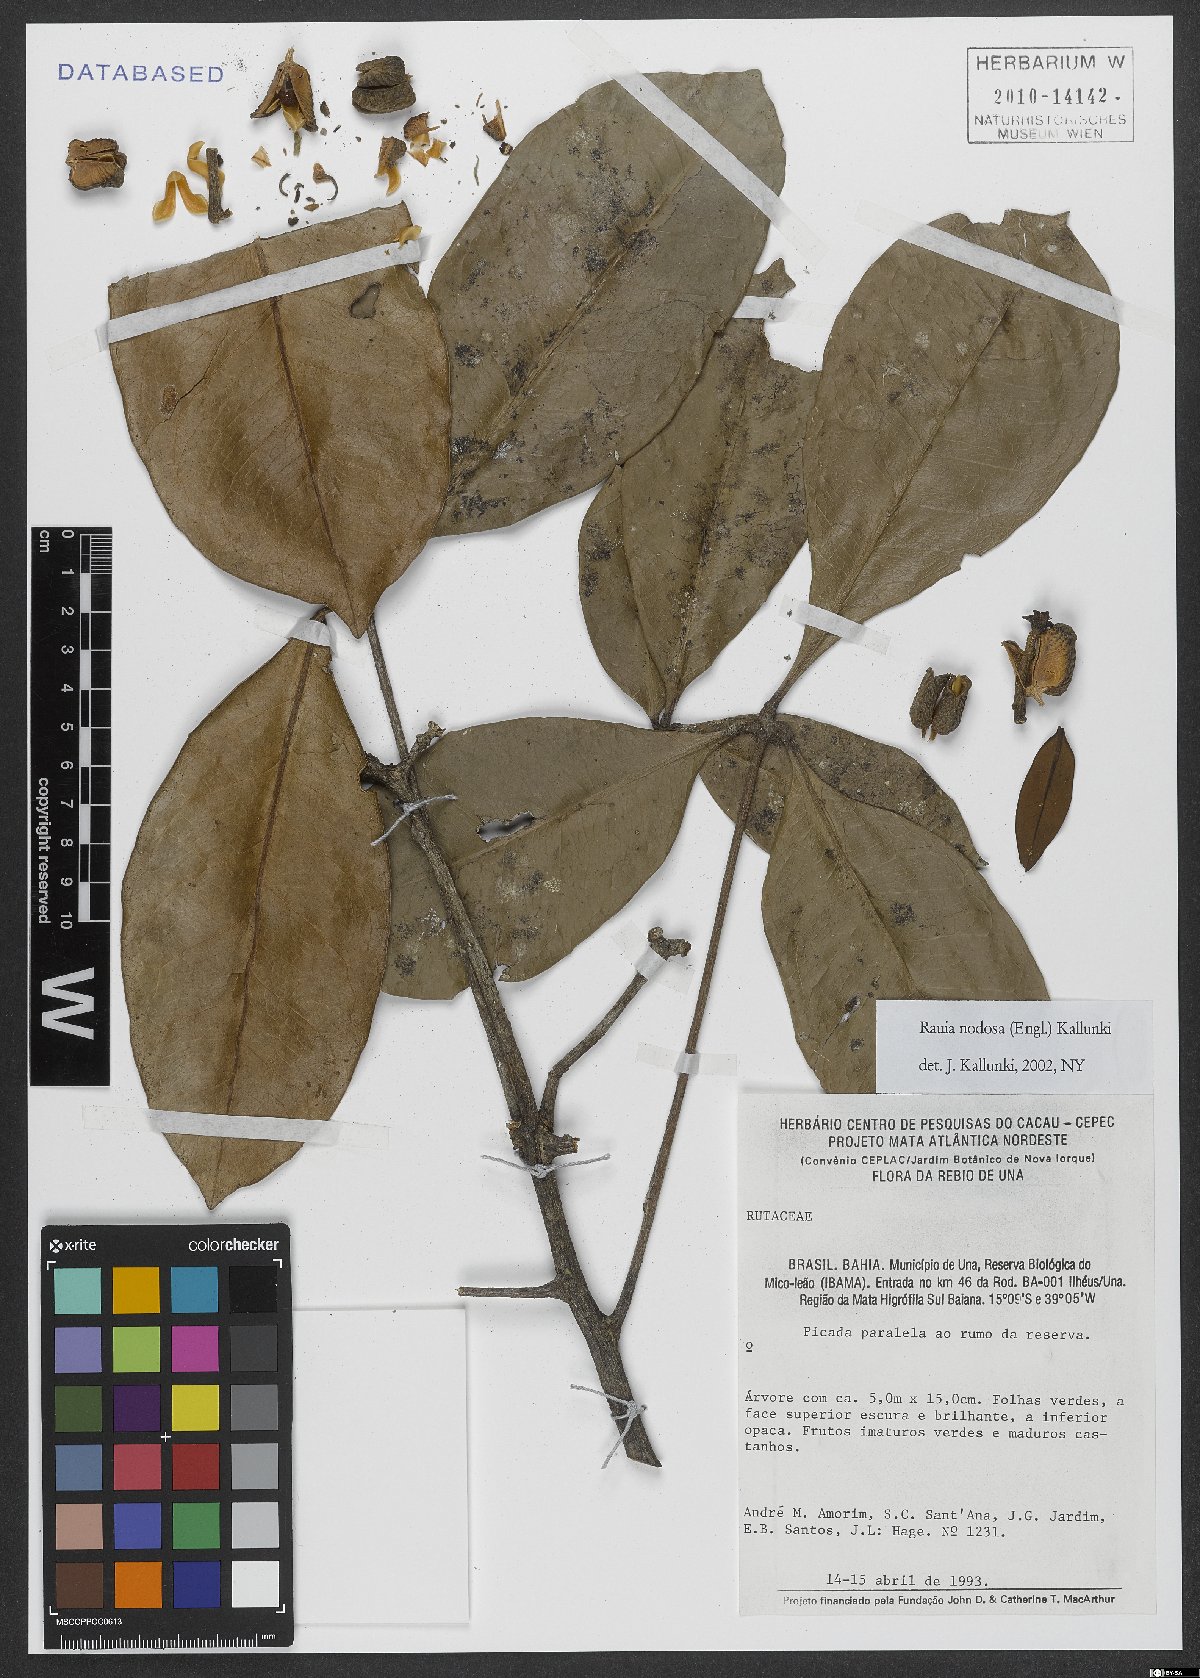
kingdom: Plantae
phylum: Tracheophyta
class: Magnoliopsida
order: Sapindales
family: Rutaceae
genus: Rauia
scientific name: Rauia nodosa
